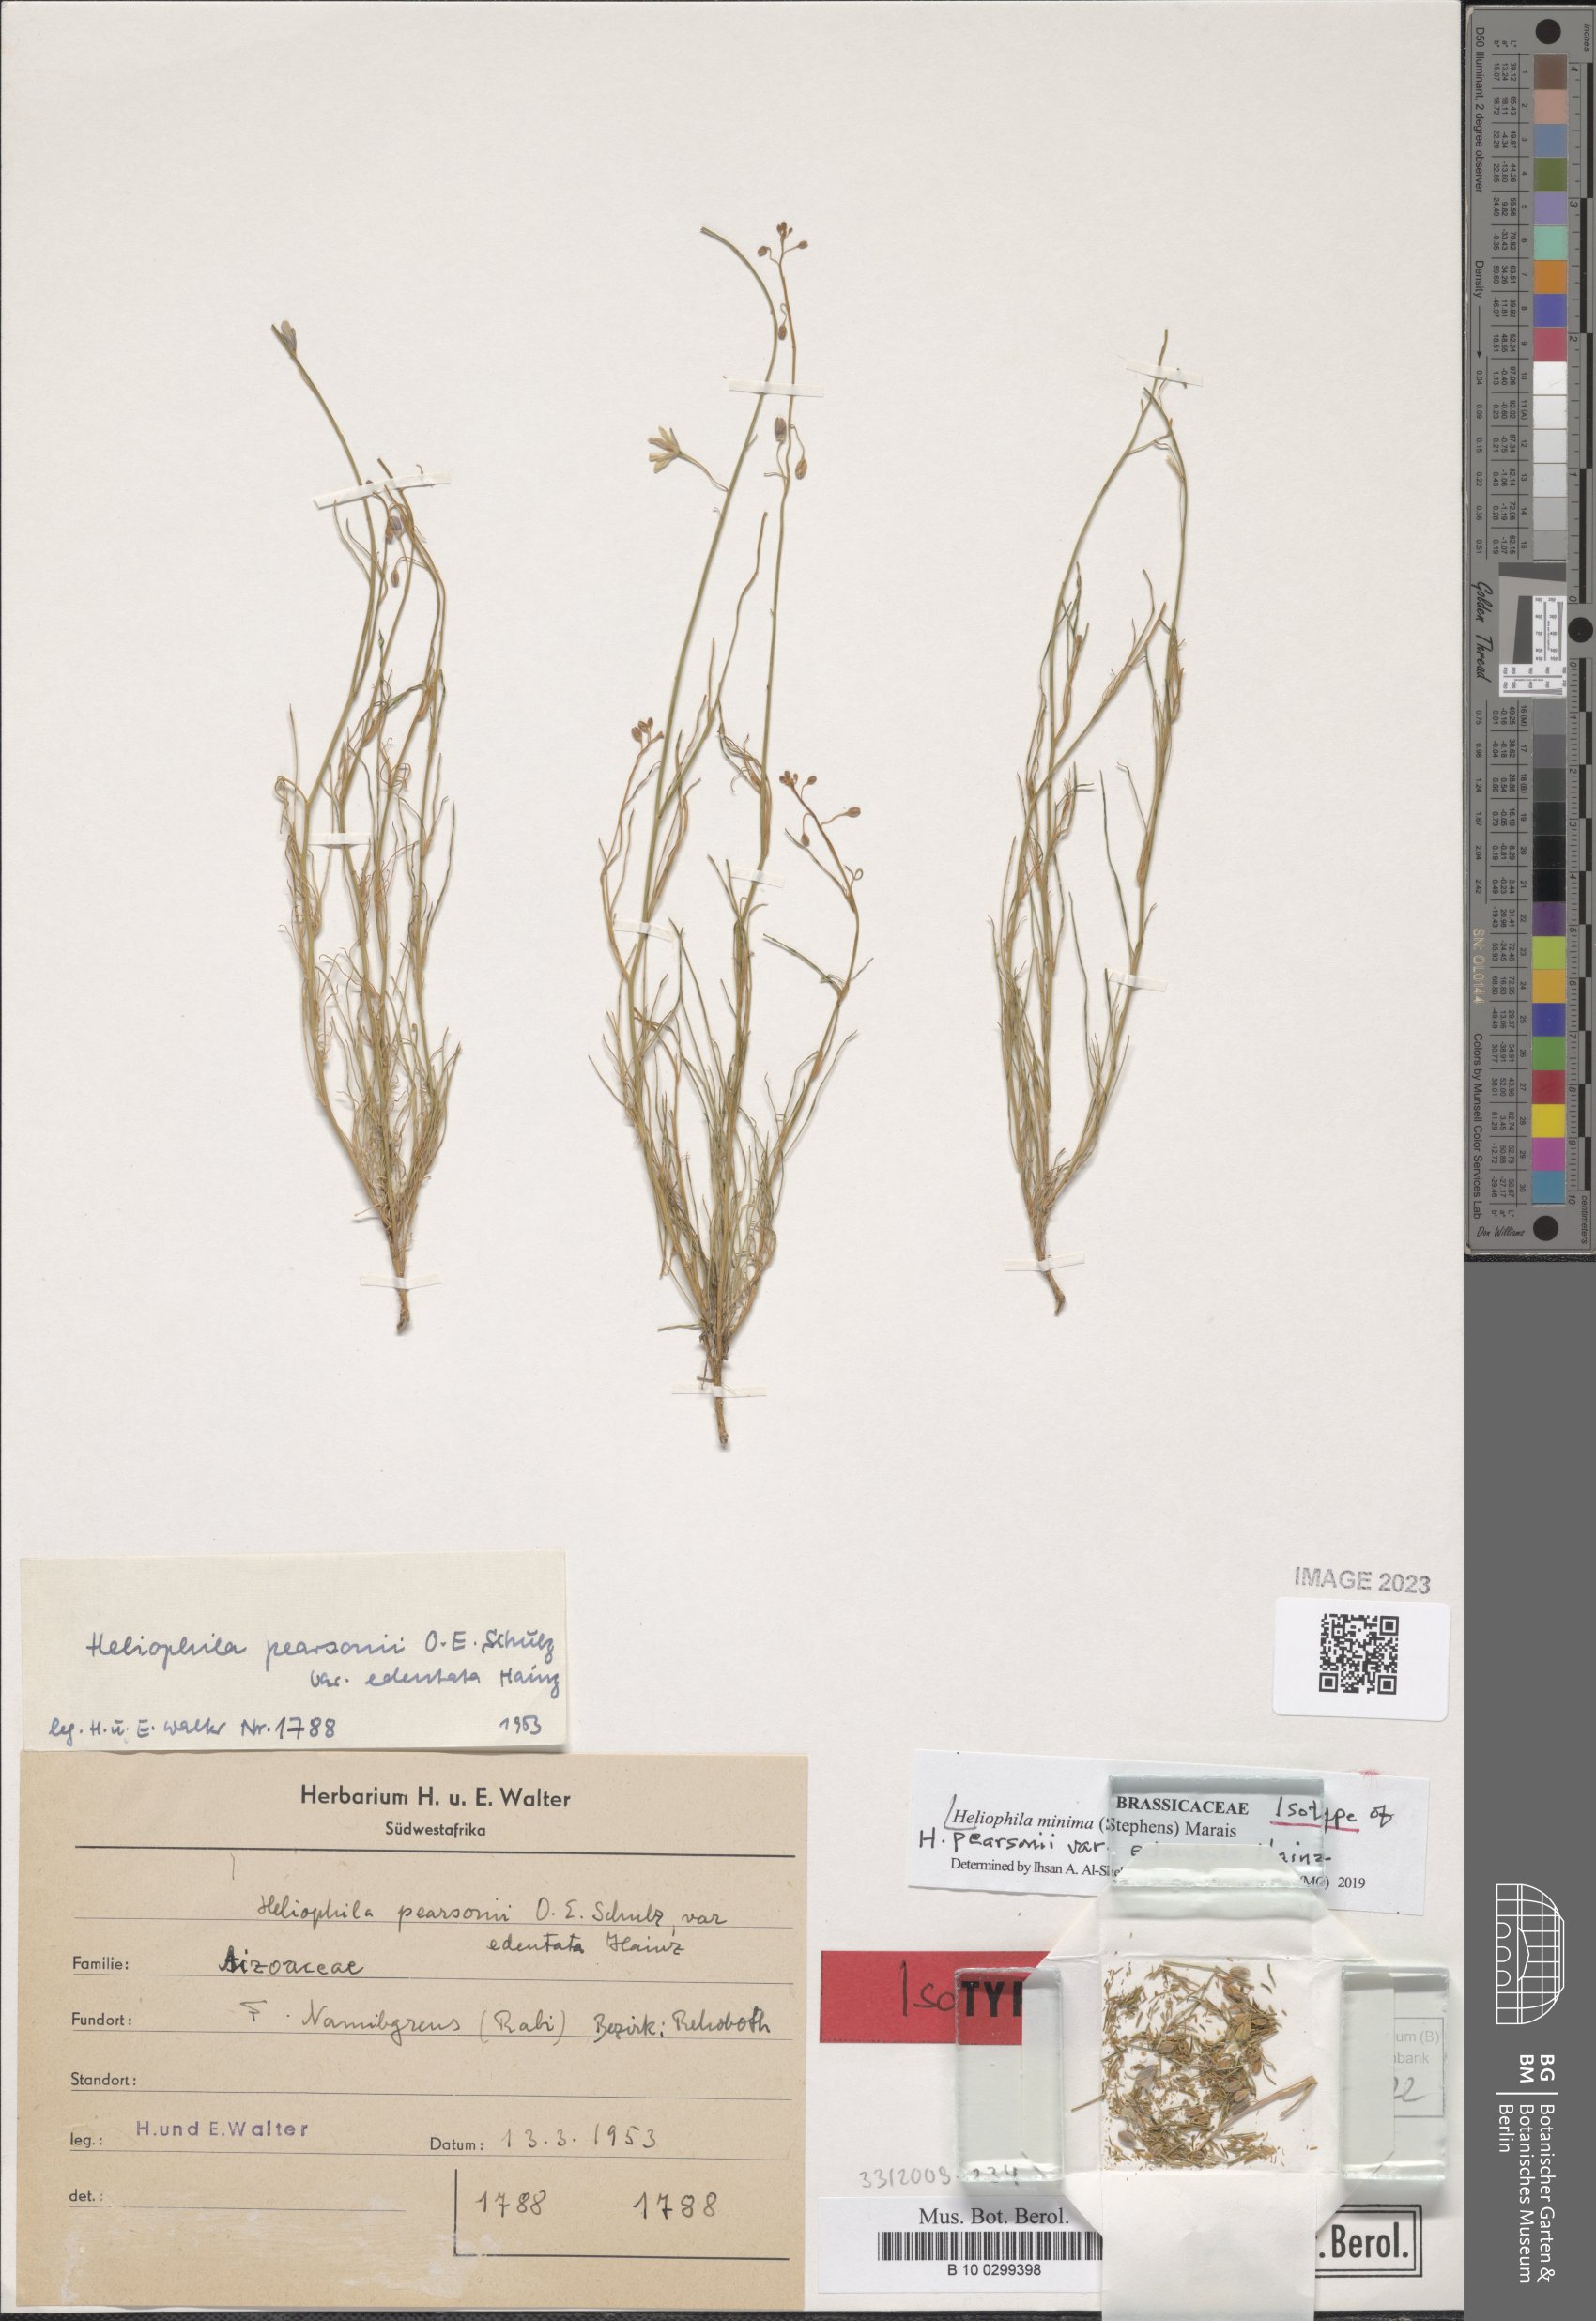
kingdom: Plantae
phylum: Tracheophyta
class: Magnoliopsida
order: Brassicales
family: Brassicaceae
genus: Heliophila
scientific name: Heliophila minima
